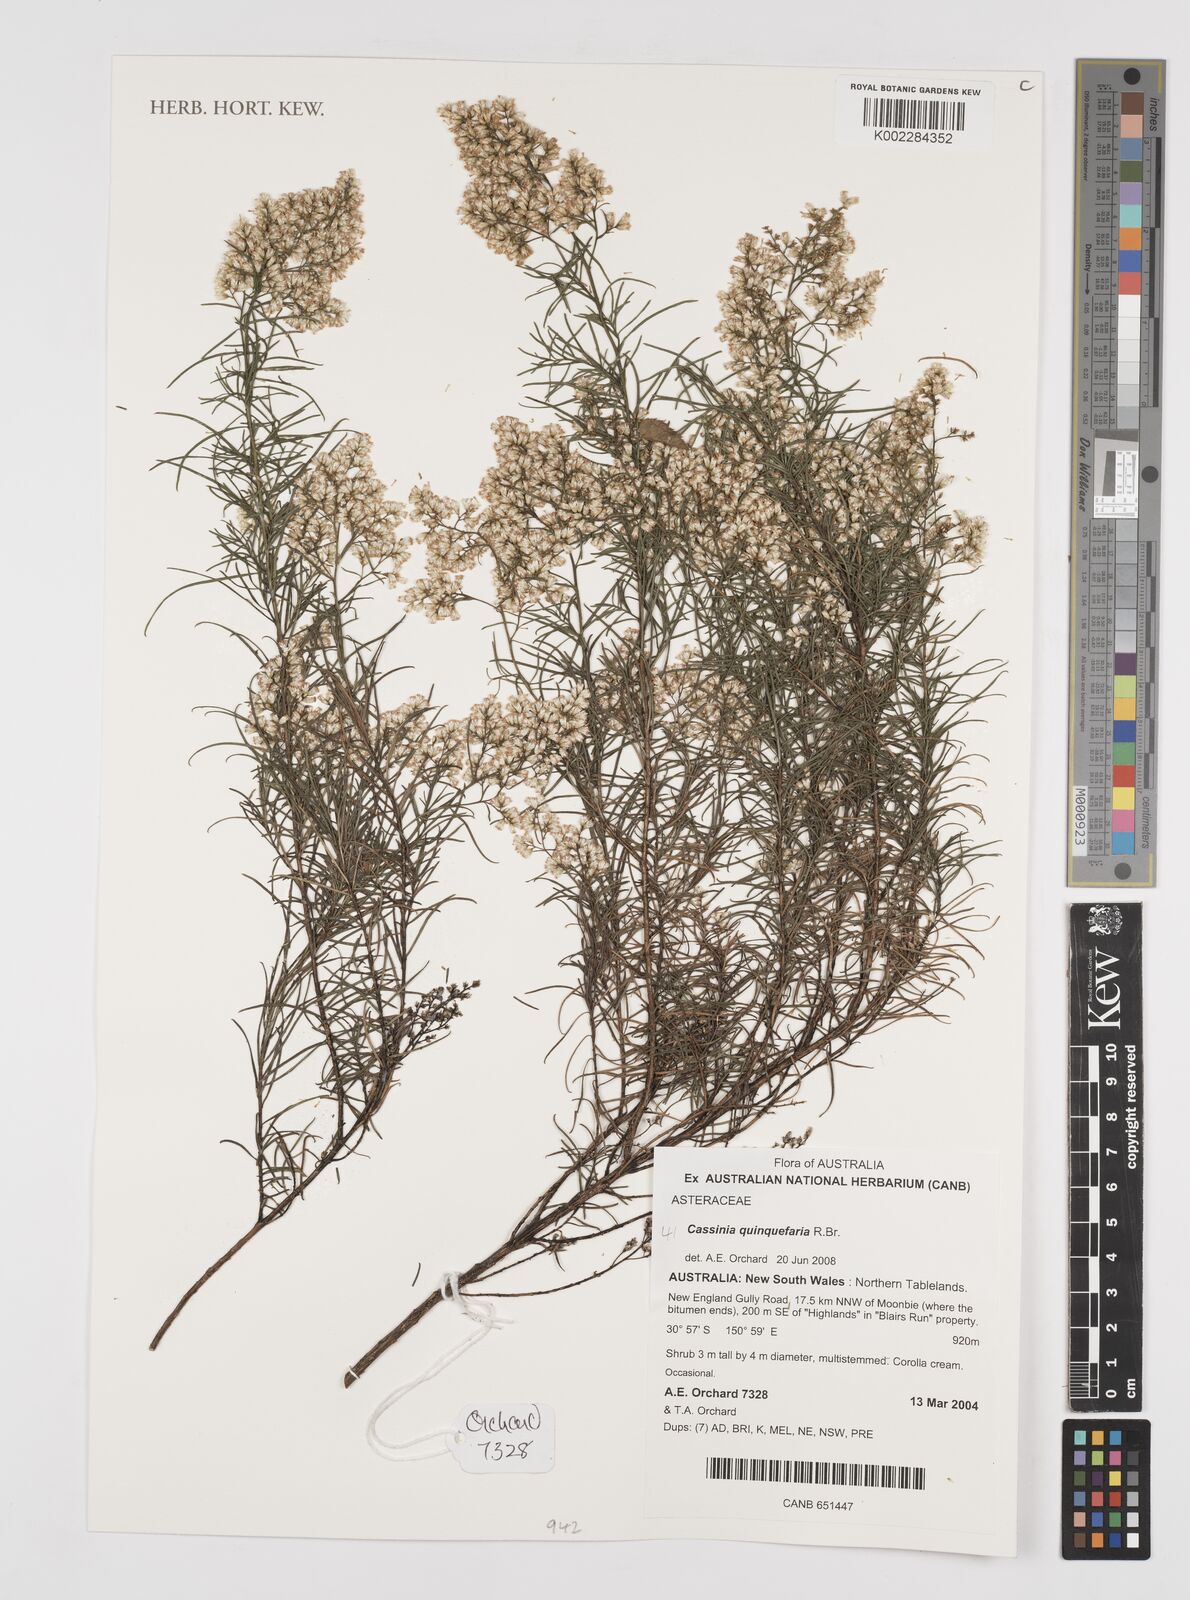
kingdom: Plantae
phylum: Tracheophyta
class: Magnoliopsida
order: Asterales
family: Asteraceae
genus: Cassinia
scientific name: Cassinia quinquefaria
